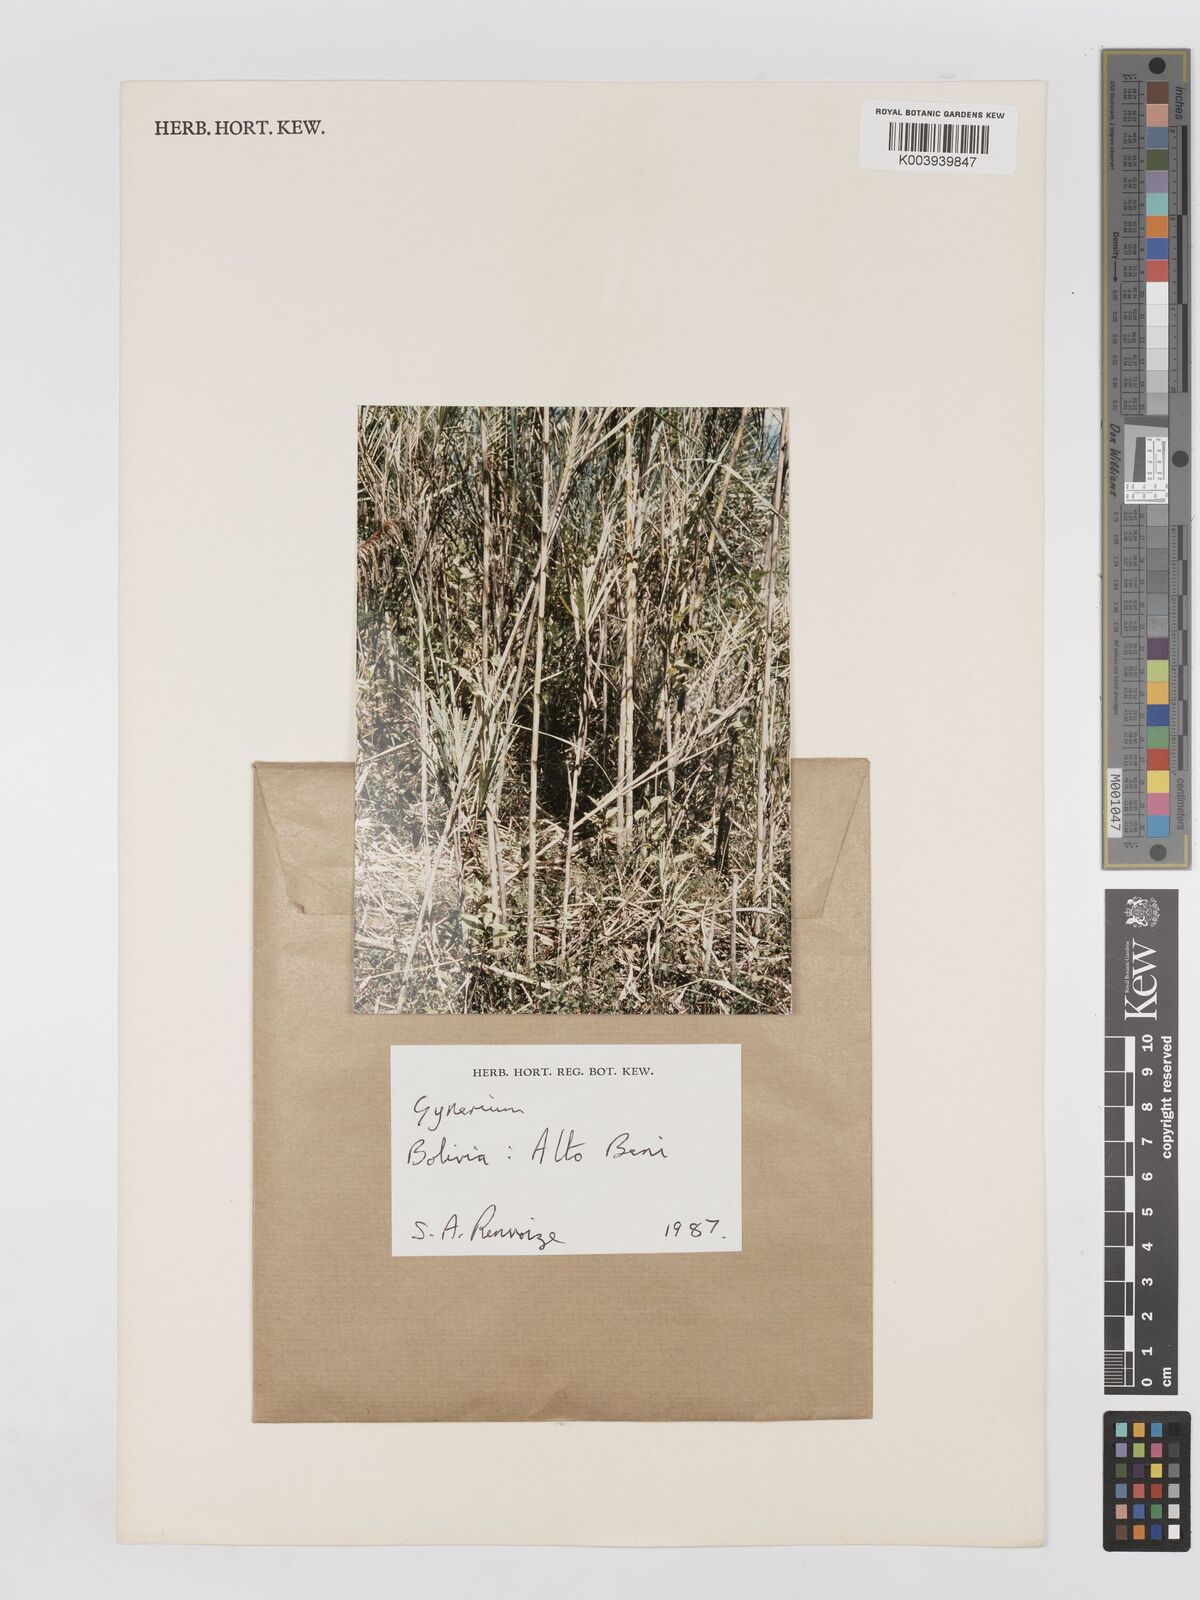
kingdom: Plantae
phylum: Tracheophyta
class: Liliopsida
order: Poales
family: Poaceae
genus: Gynerium
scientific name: Gynerium sagittatum
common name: Wild cane
